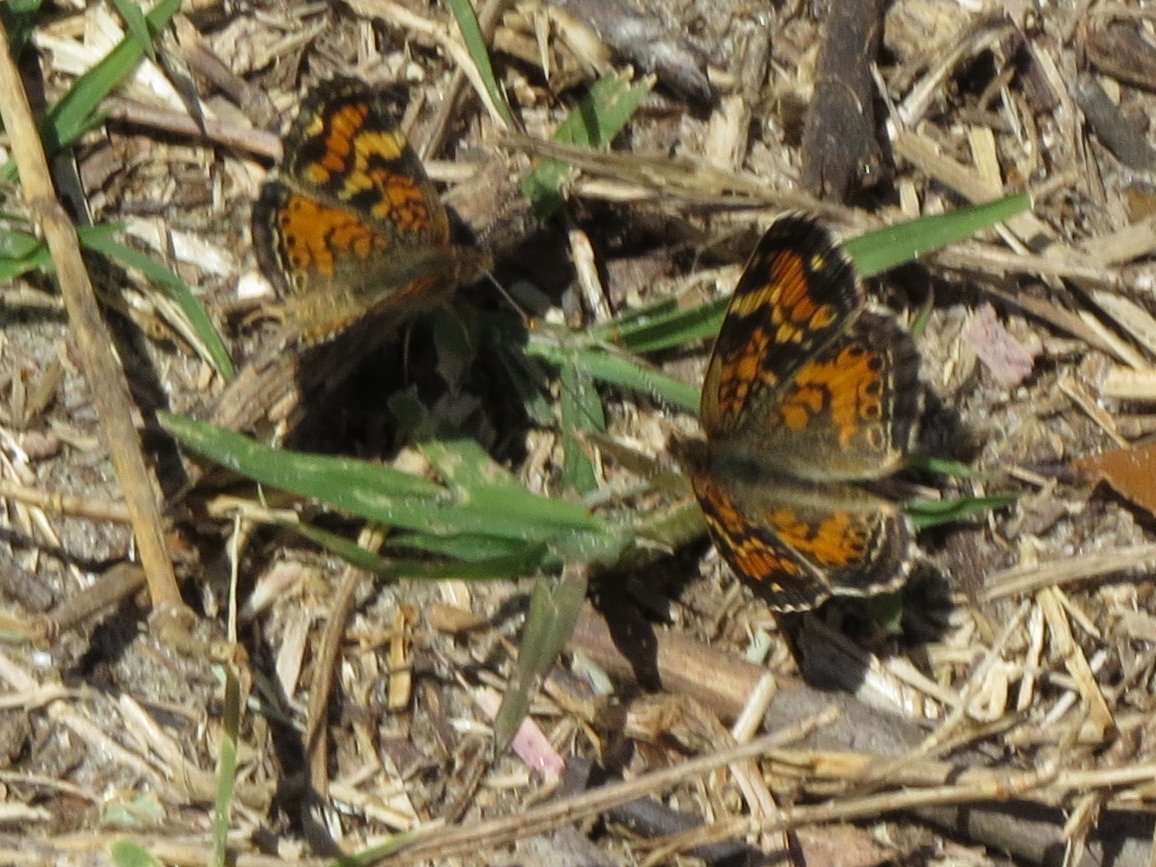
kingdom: Animalia
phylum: Arthropoda
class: Insecta
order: Lepidoptera
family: Nymphalidae
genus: Phyciodes
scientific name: Phyciodes phaon
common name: Phaon Crescent
